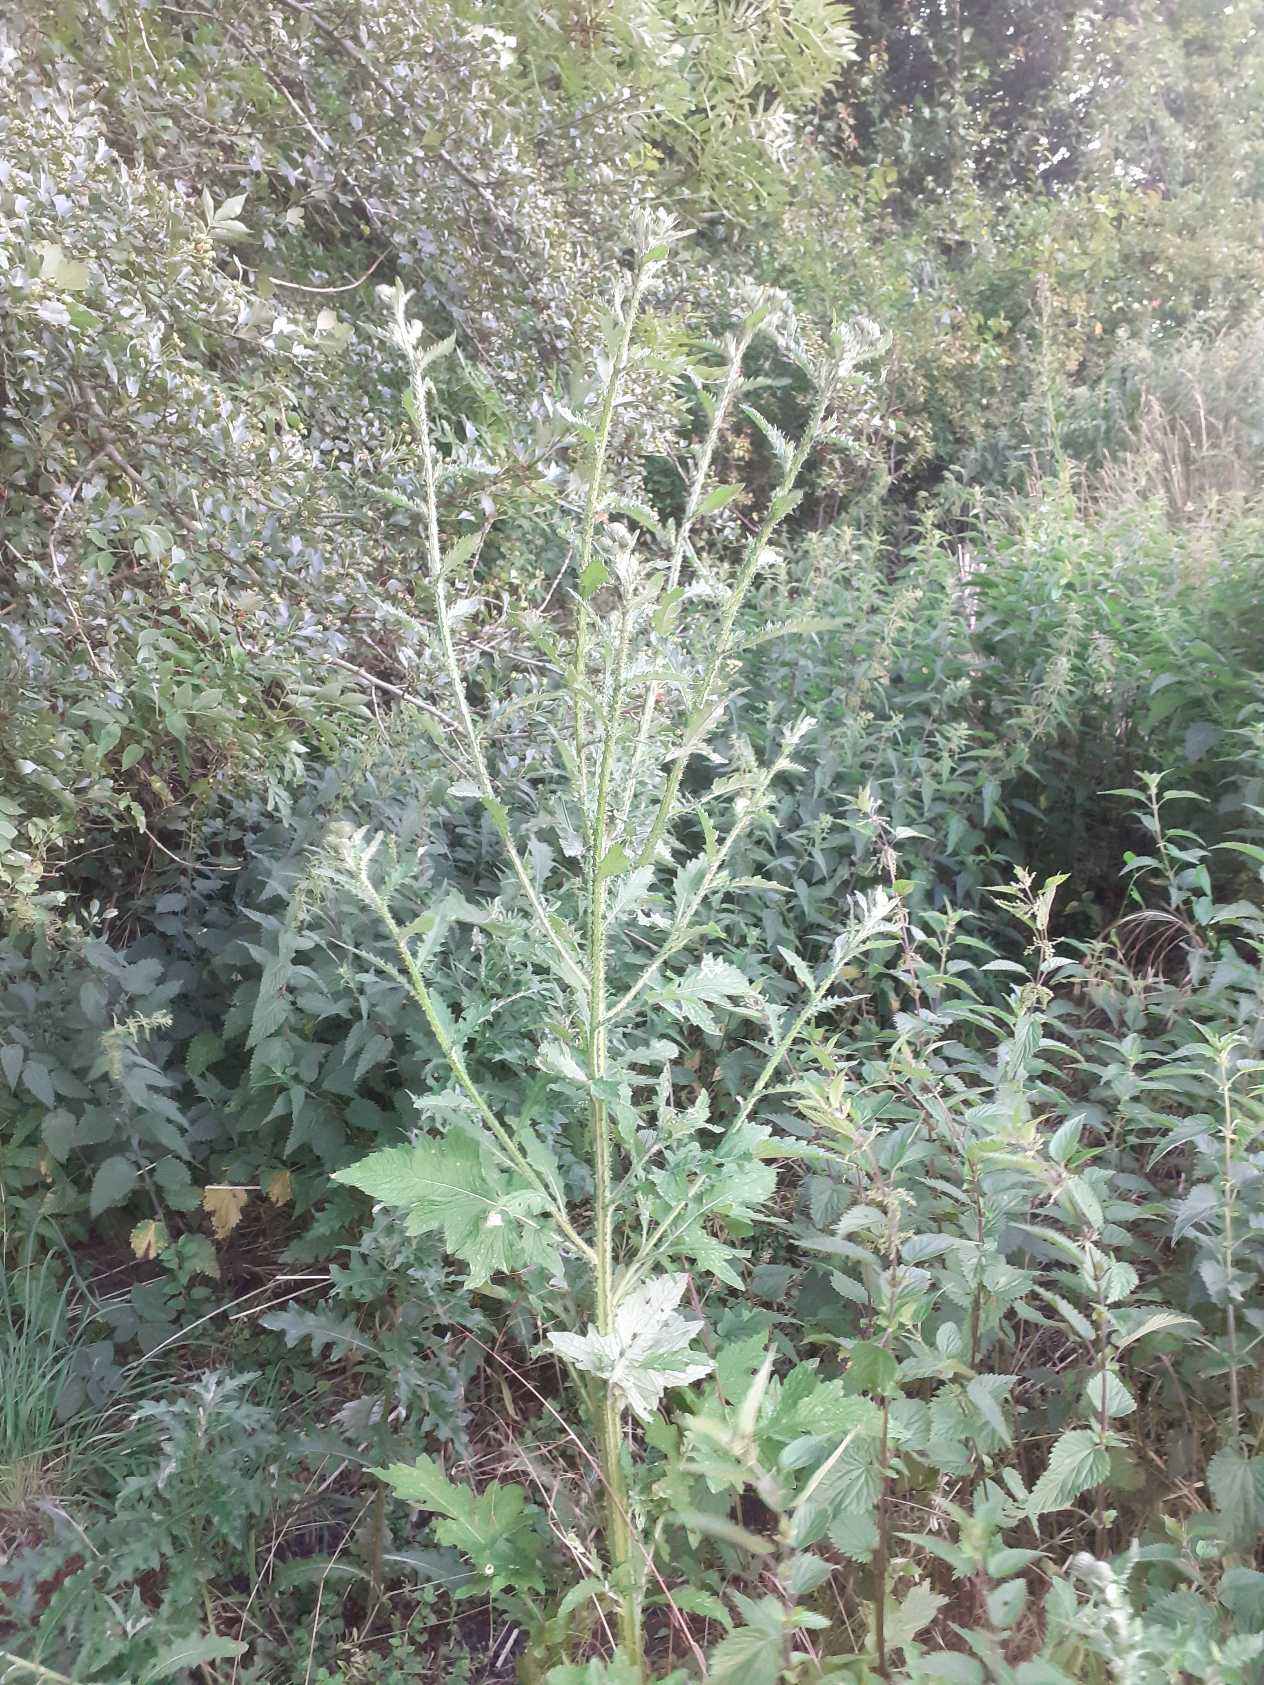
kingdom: Plantae
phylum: Tracheophyta
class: Magnoliopsida
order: Asterales
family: Asteraceae
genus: Carduus
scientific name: Carduus crispus
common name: Kruset tidsel
